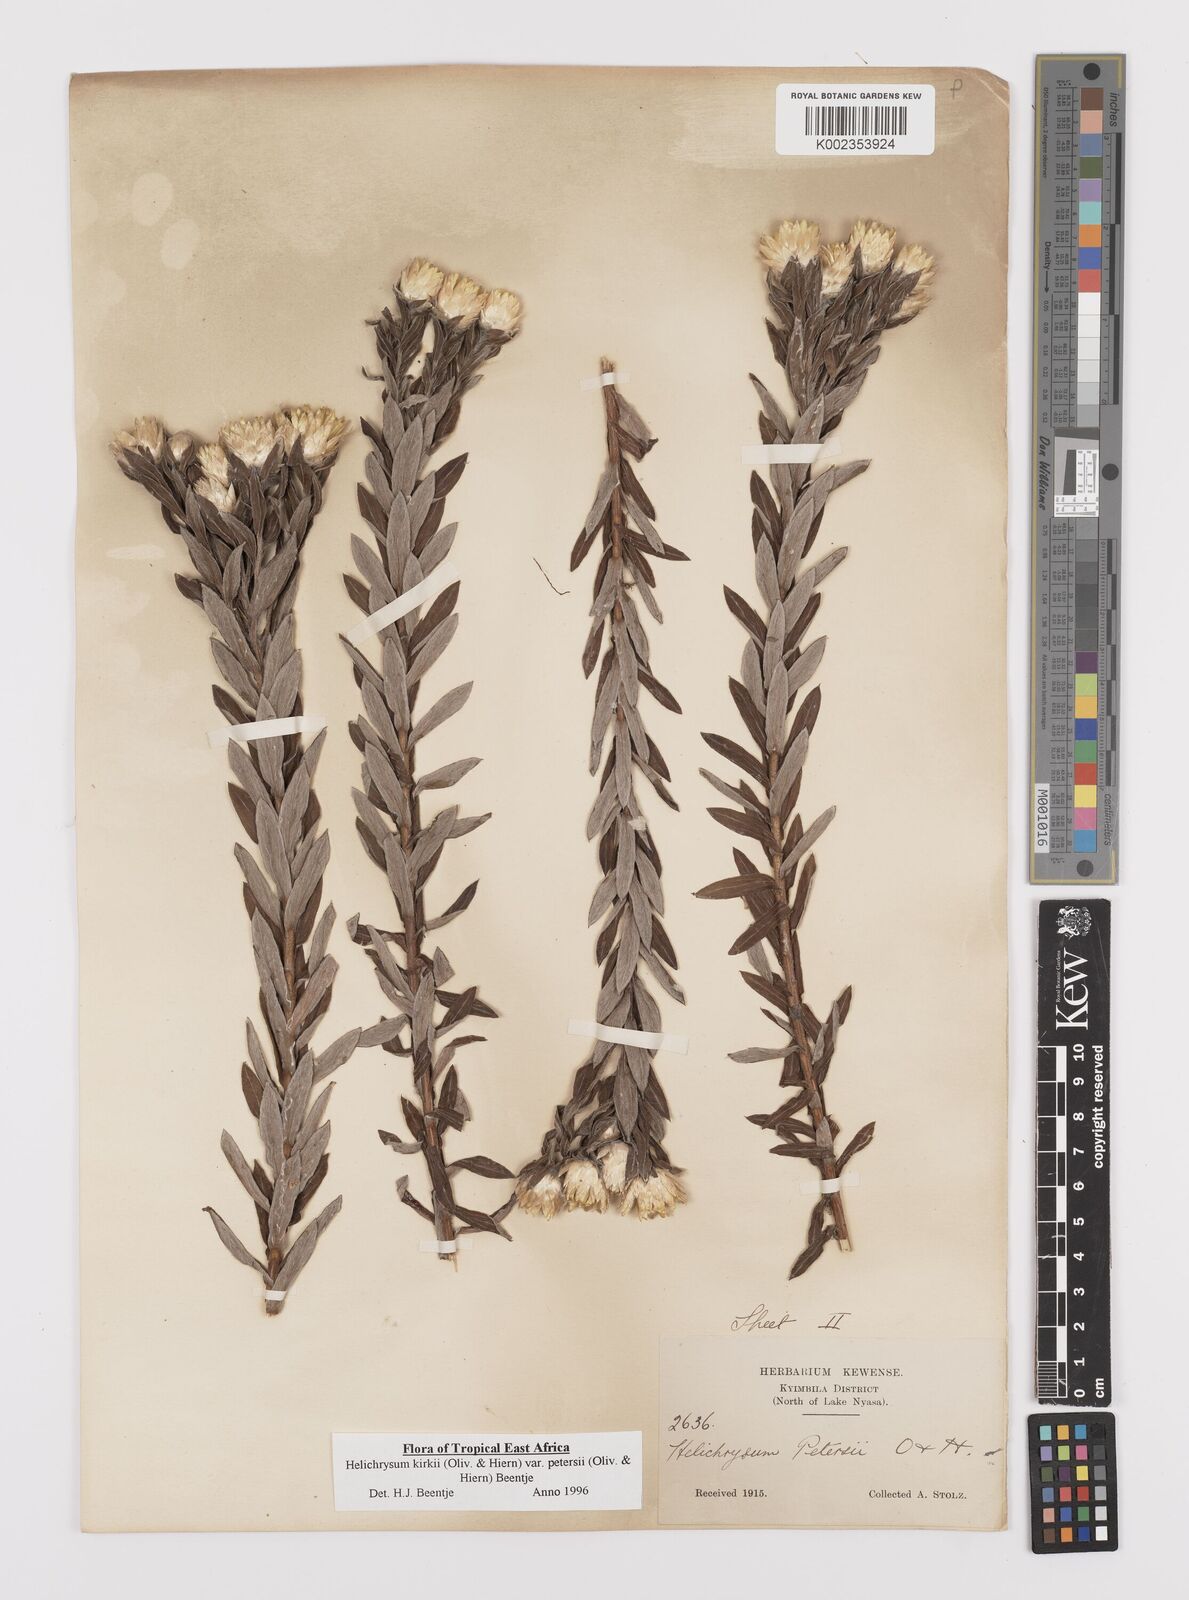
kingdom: Plantae
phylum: Tracheophyta
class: Magnoliopsida
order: Asterales
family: Asteraceae
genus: Helichrysum
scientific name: Helichrysum kirkii
